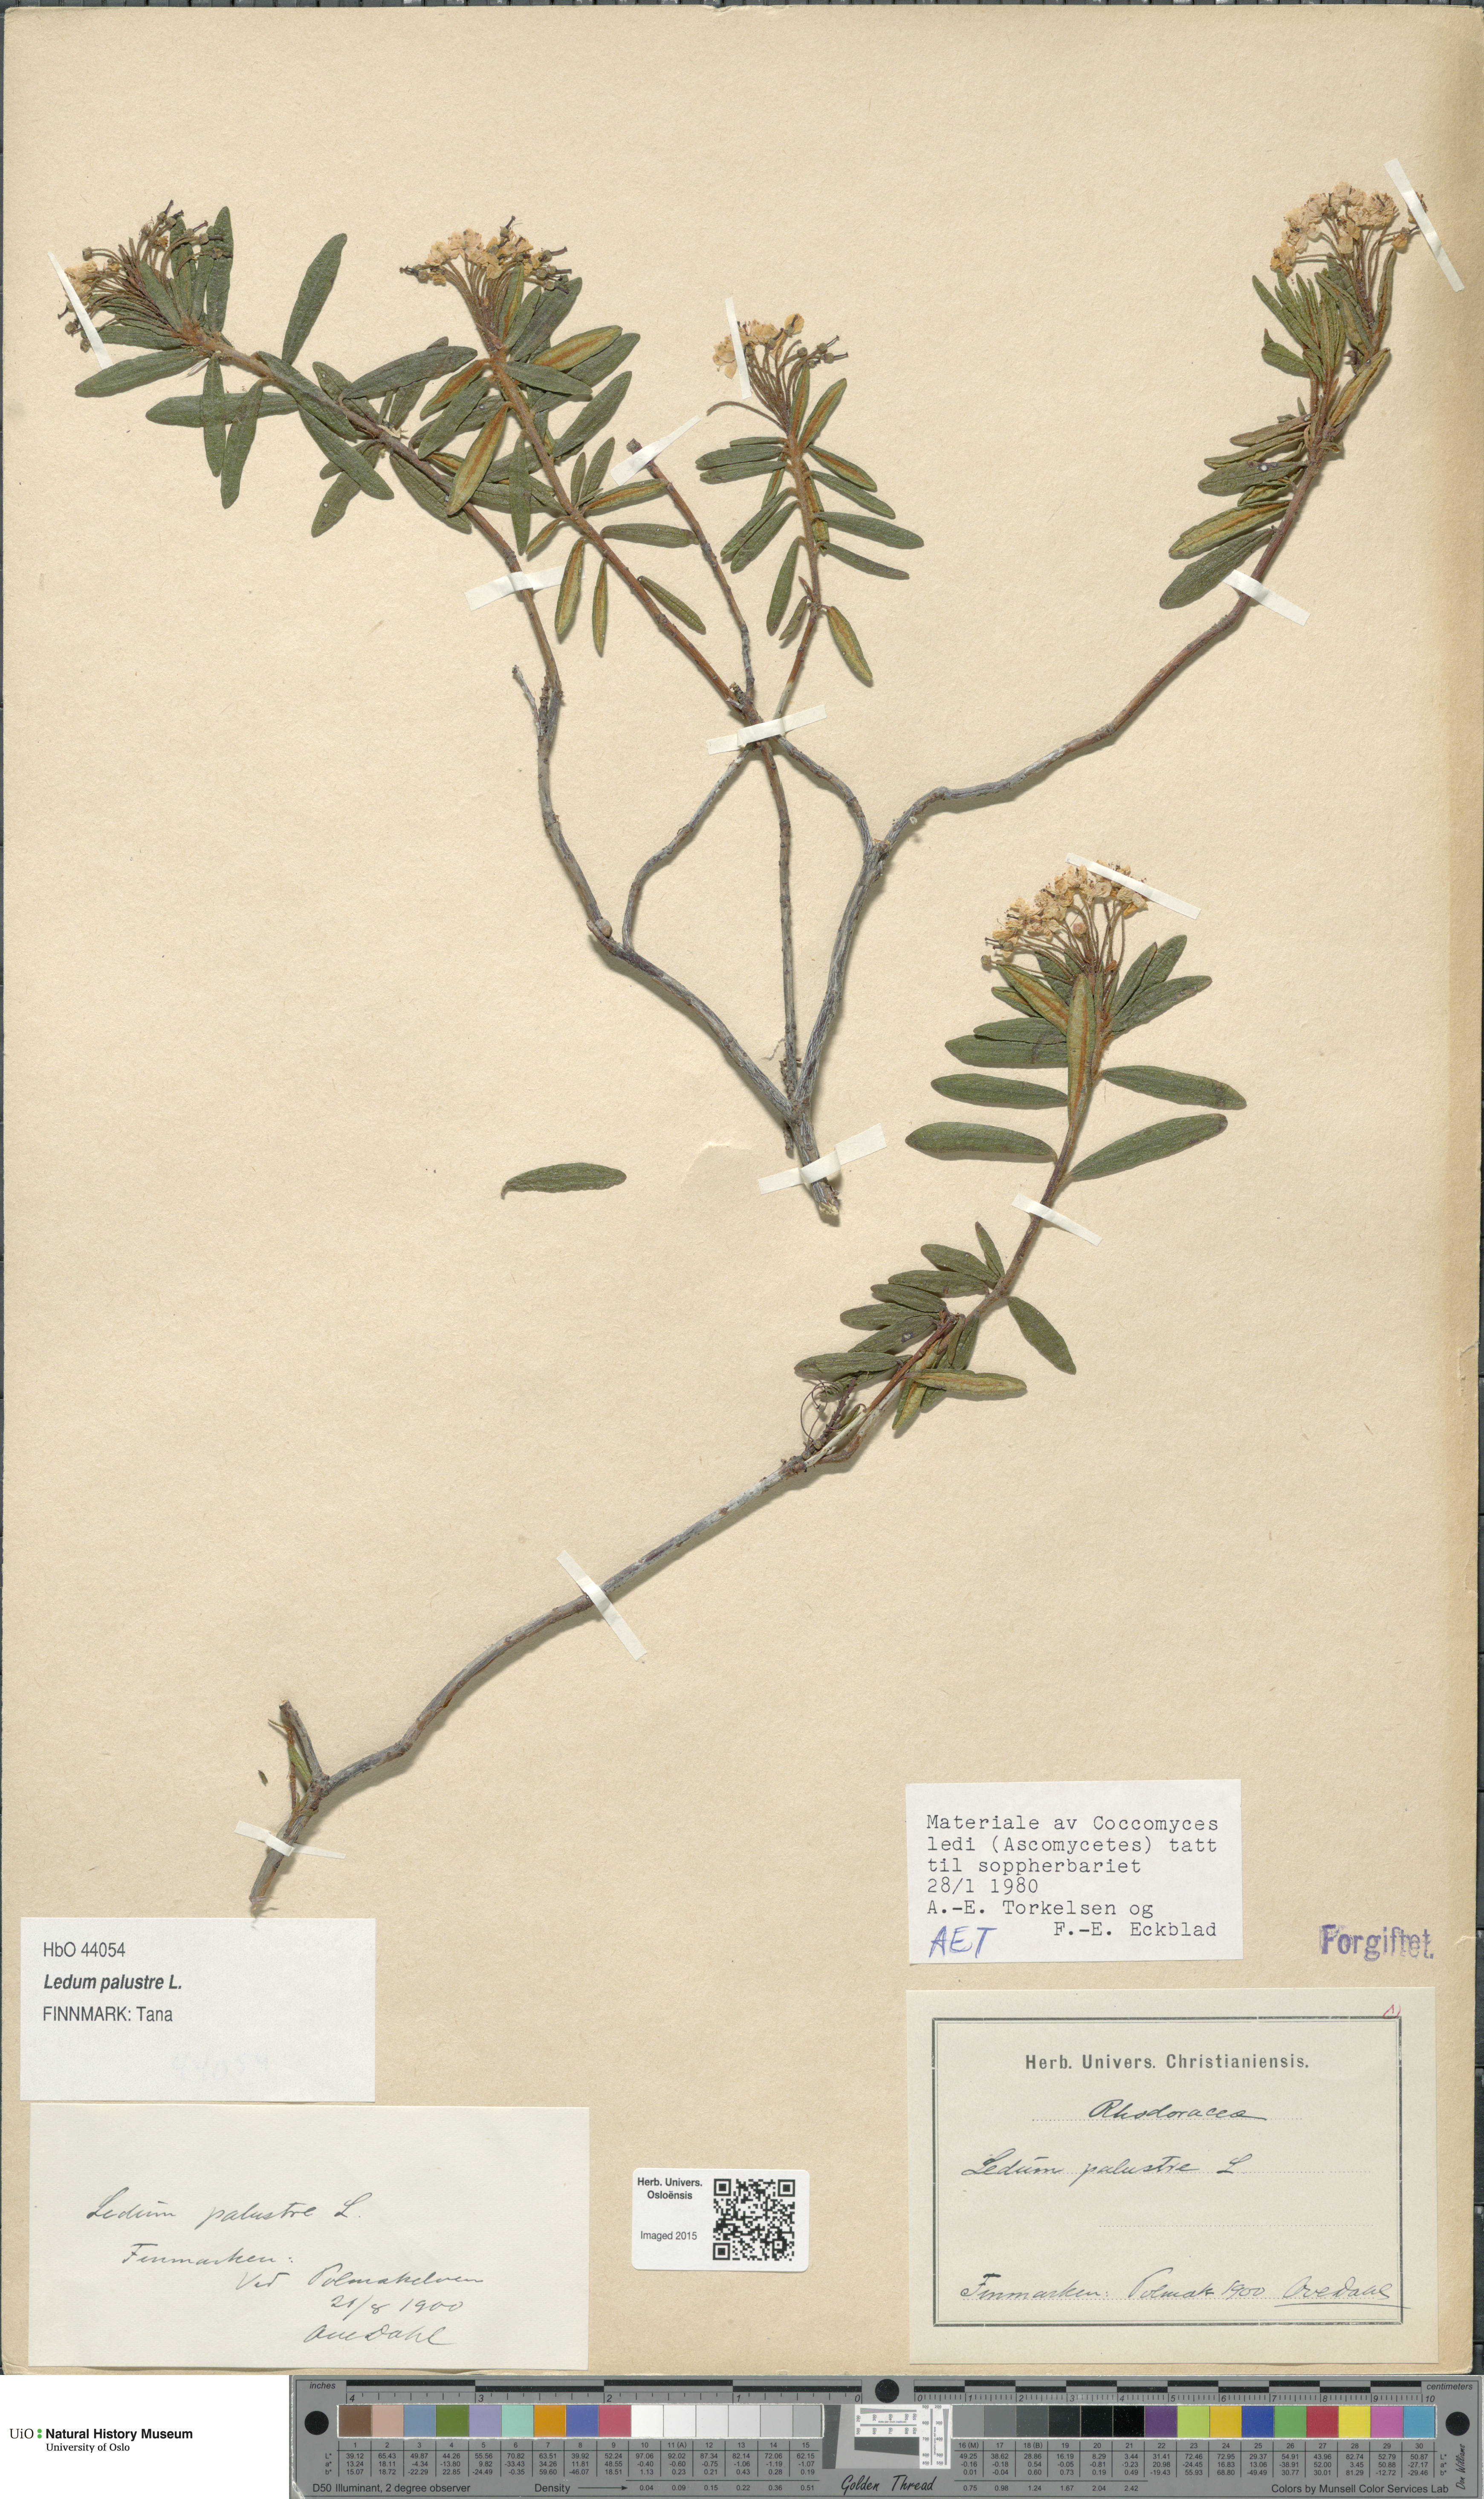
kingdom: Plantae
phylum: Tracheophyta
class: Magnoliopsida
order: Ericales
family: Ericaceae
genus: Rhododendron
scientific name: Rhododendron tomentosum
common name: Marsh labrador tea
